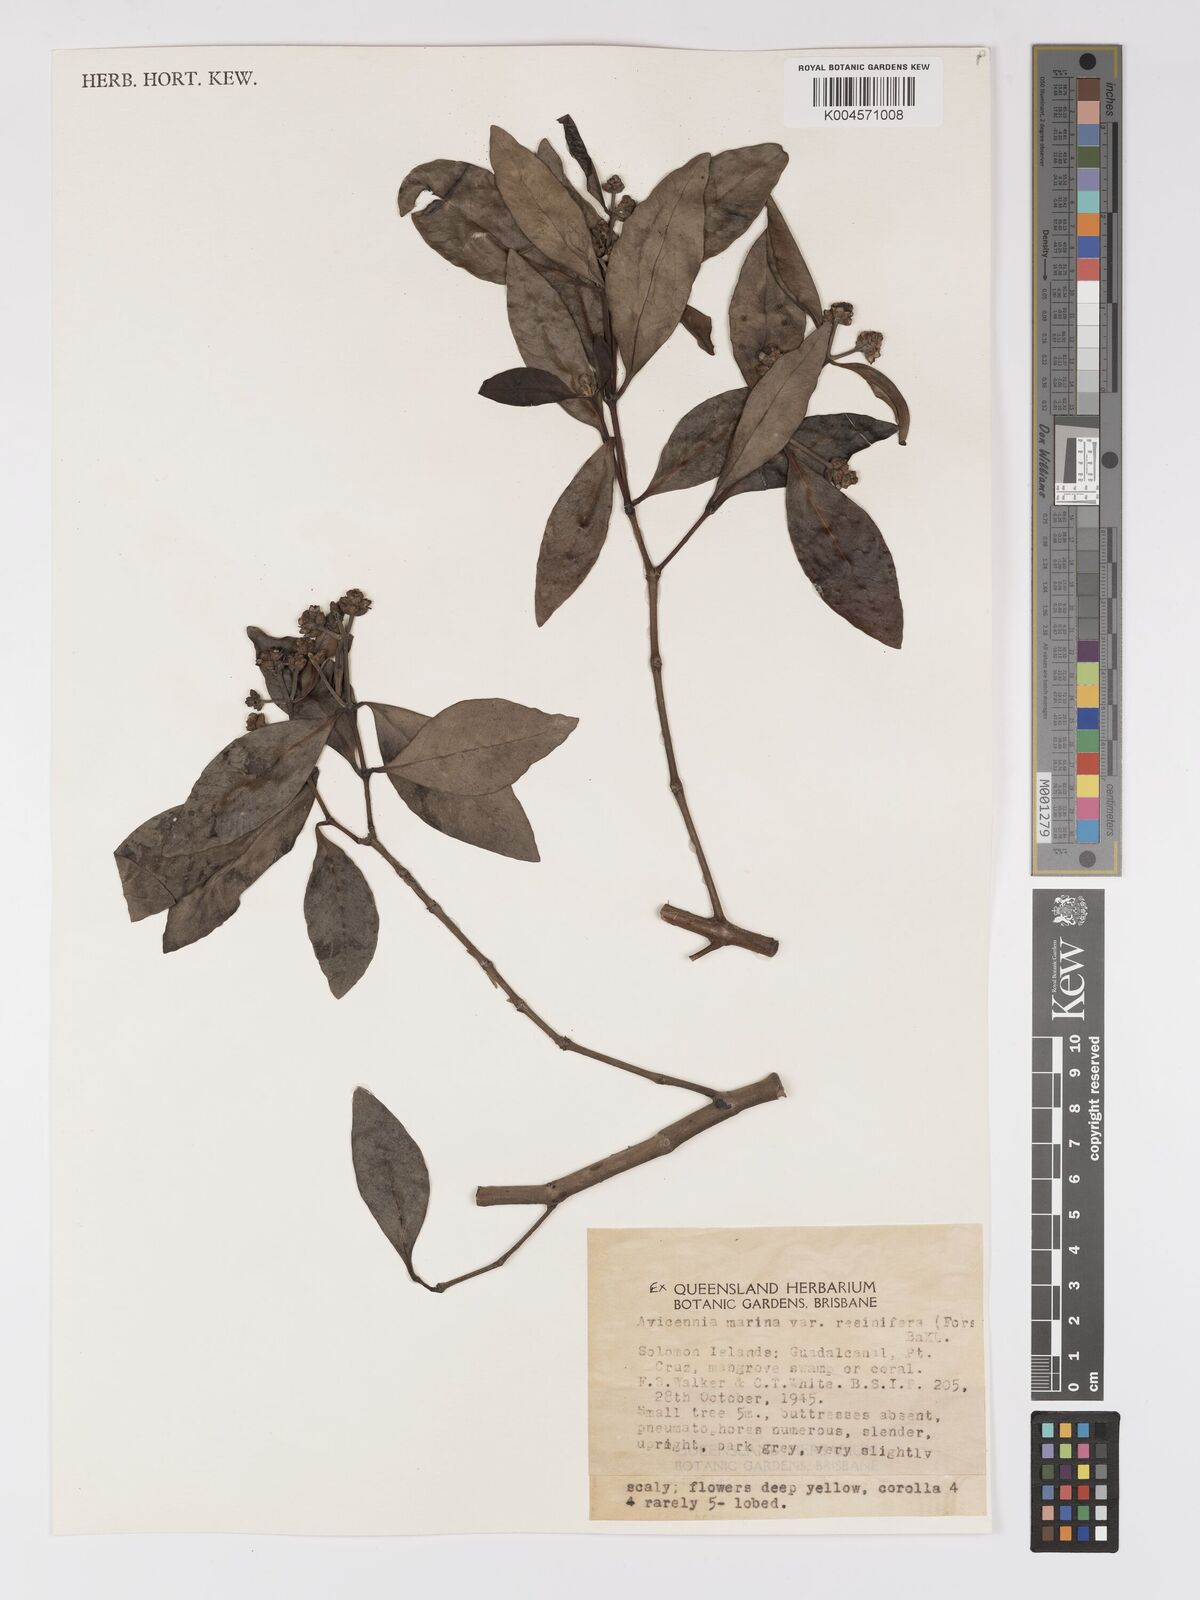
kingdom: Plantae
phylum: Tracheophyta
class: Magnoliopsida
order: Lamiales
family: Acanthaceae
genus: Avicennia
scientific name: Avicennia marina
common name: Gray mangrove
